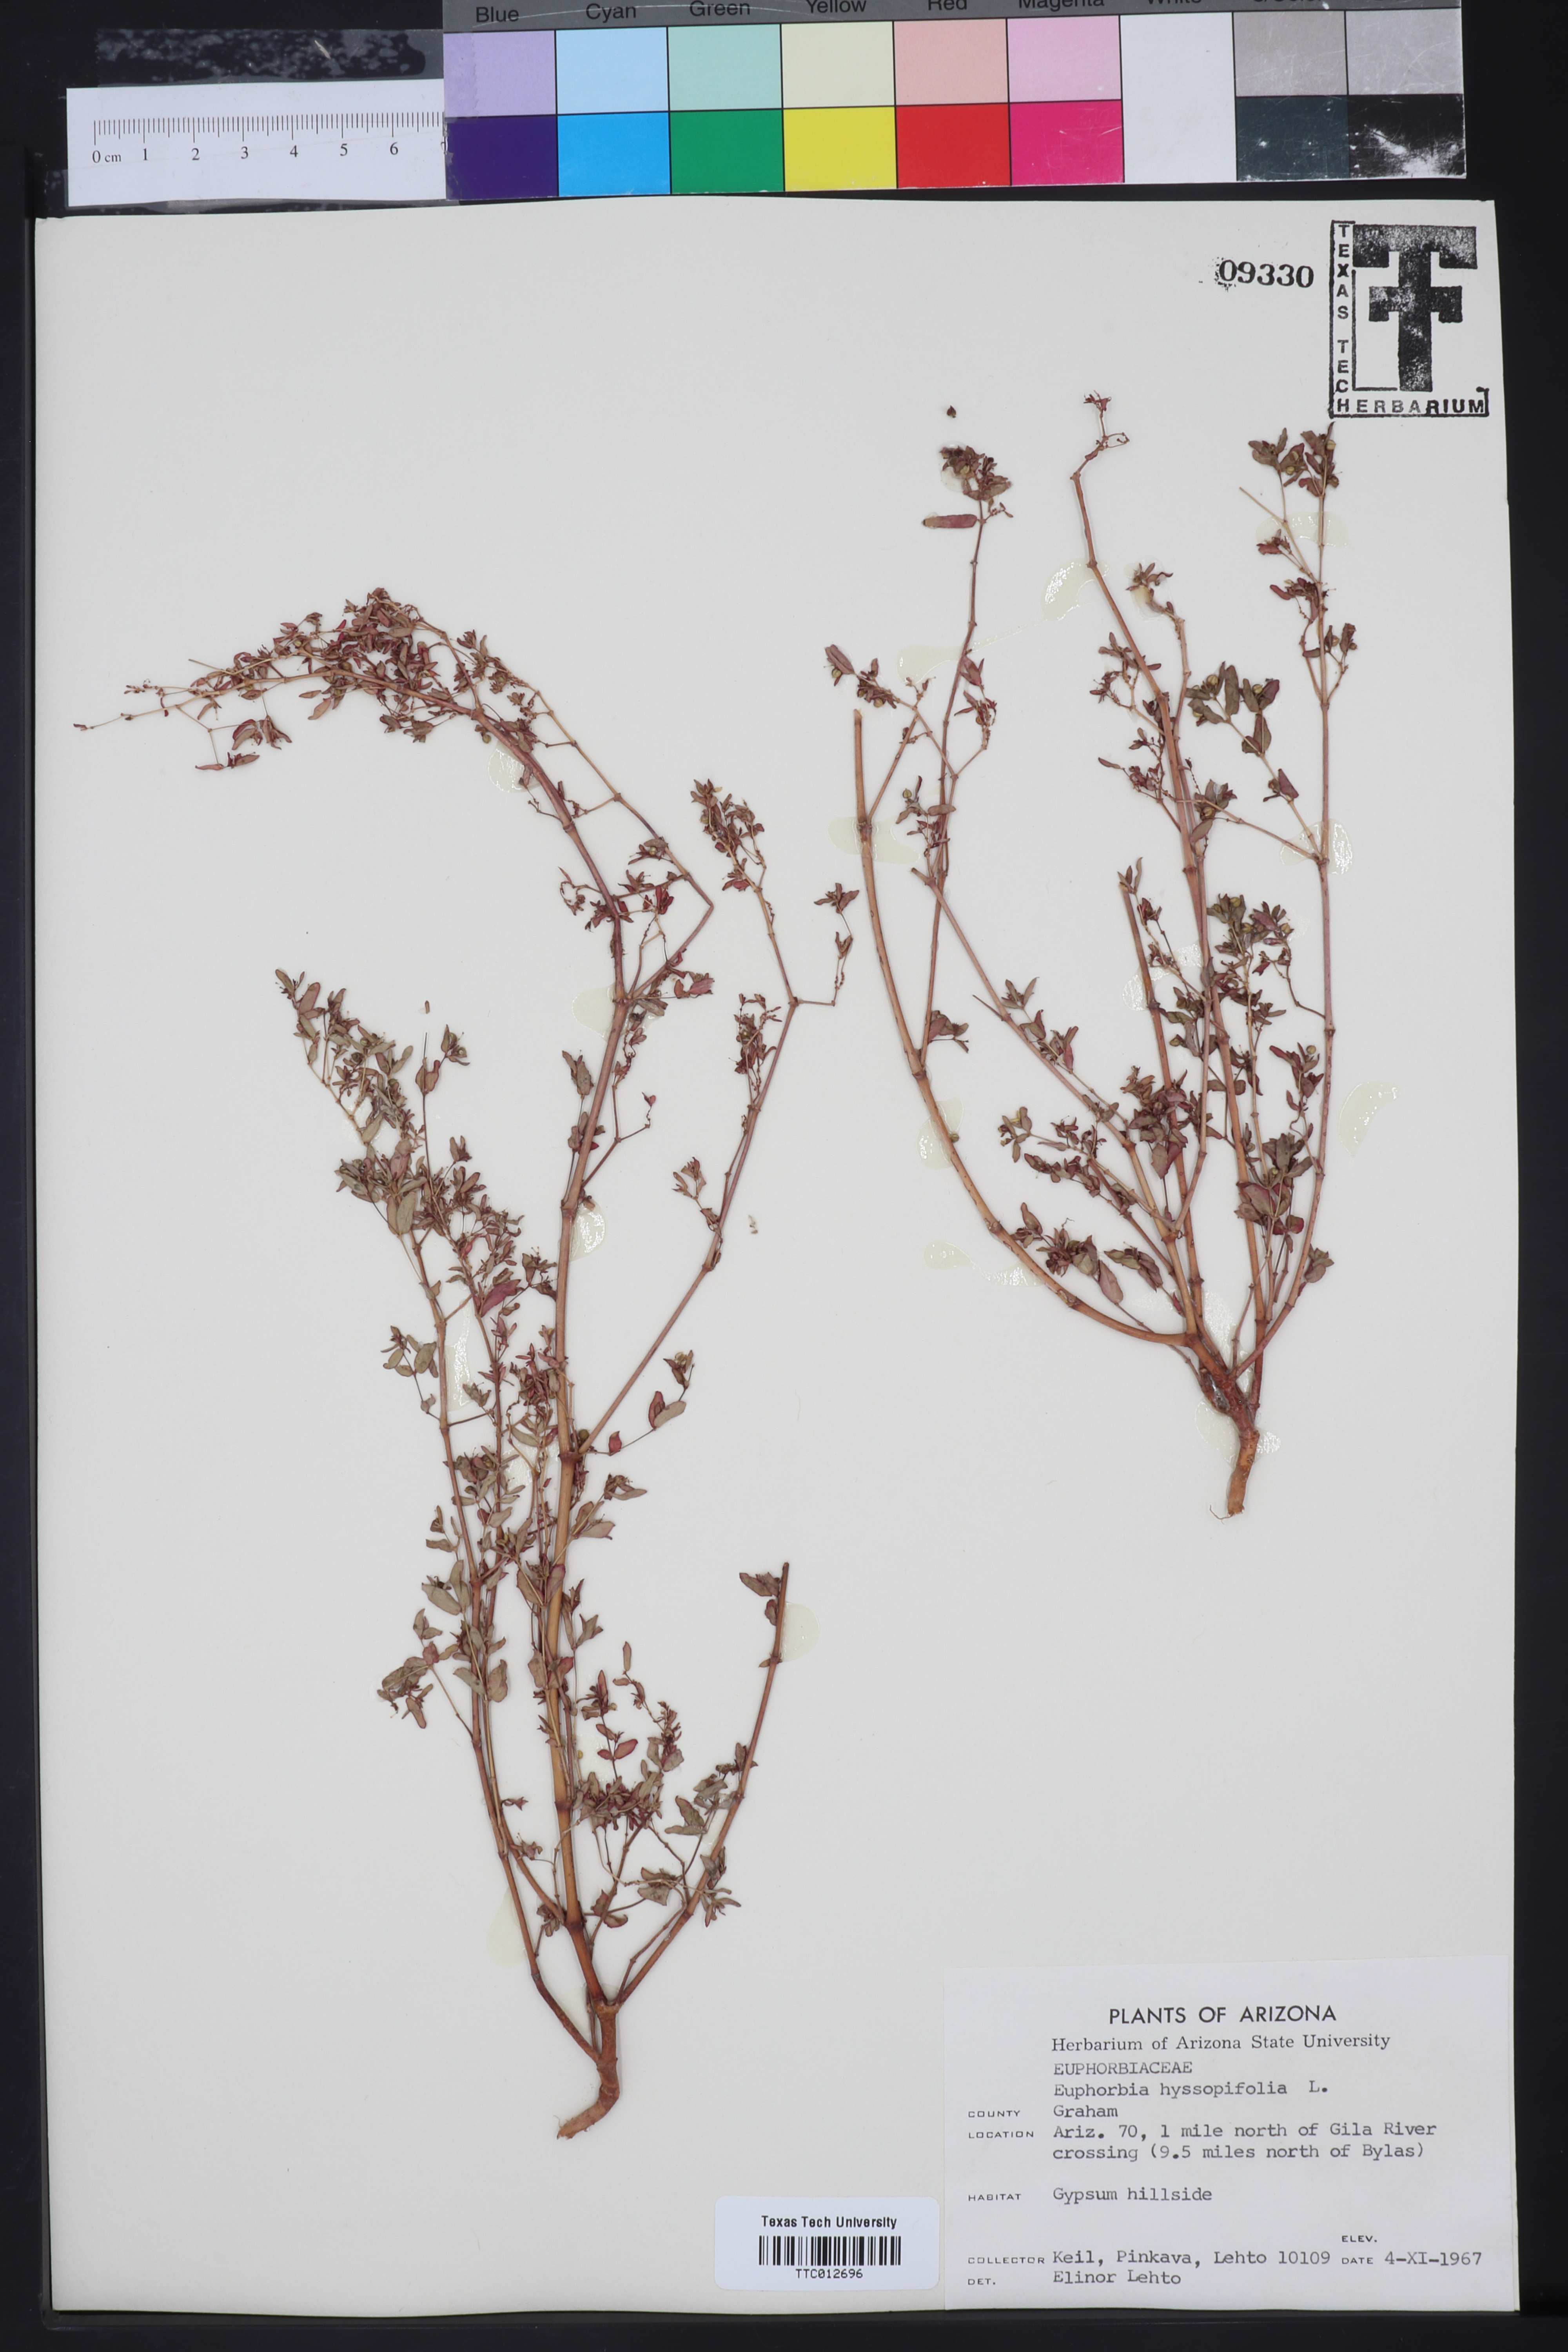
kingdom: Plantae
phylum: Tracheophyta
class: Magnoliopsida
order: Malpighiales
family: Euphorbiaceae
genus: Euphorbia
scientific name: Euphorbia hyssopifolia
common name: Hyssopleaf sandmat
